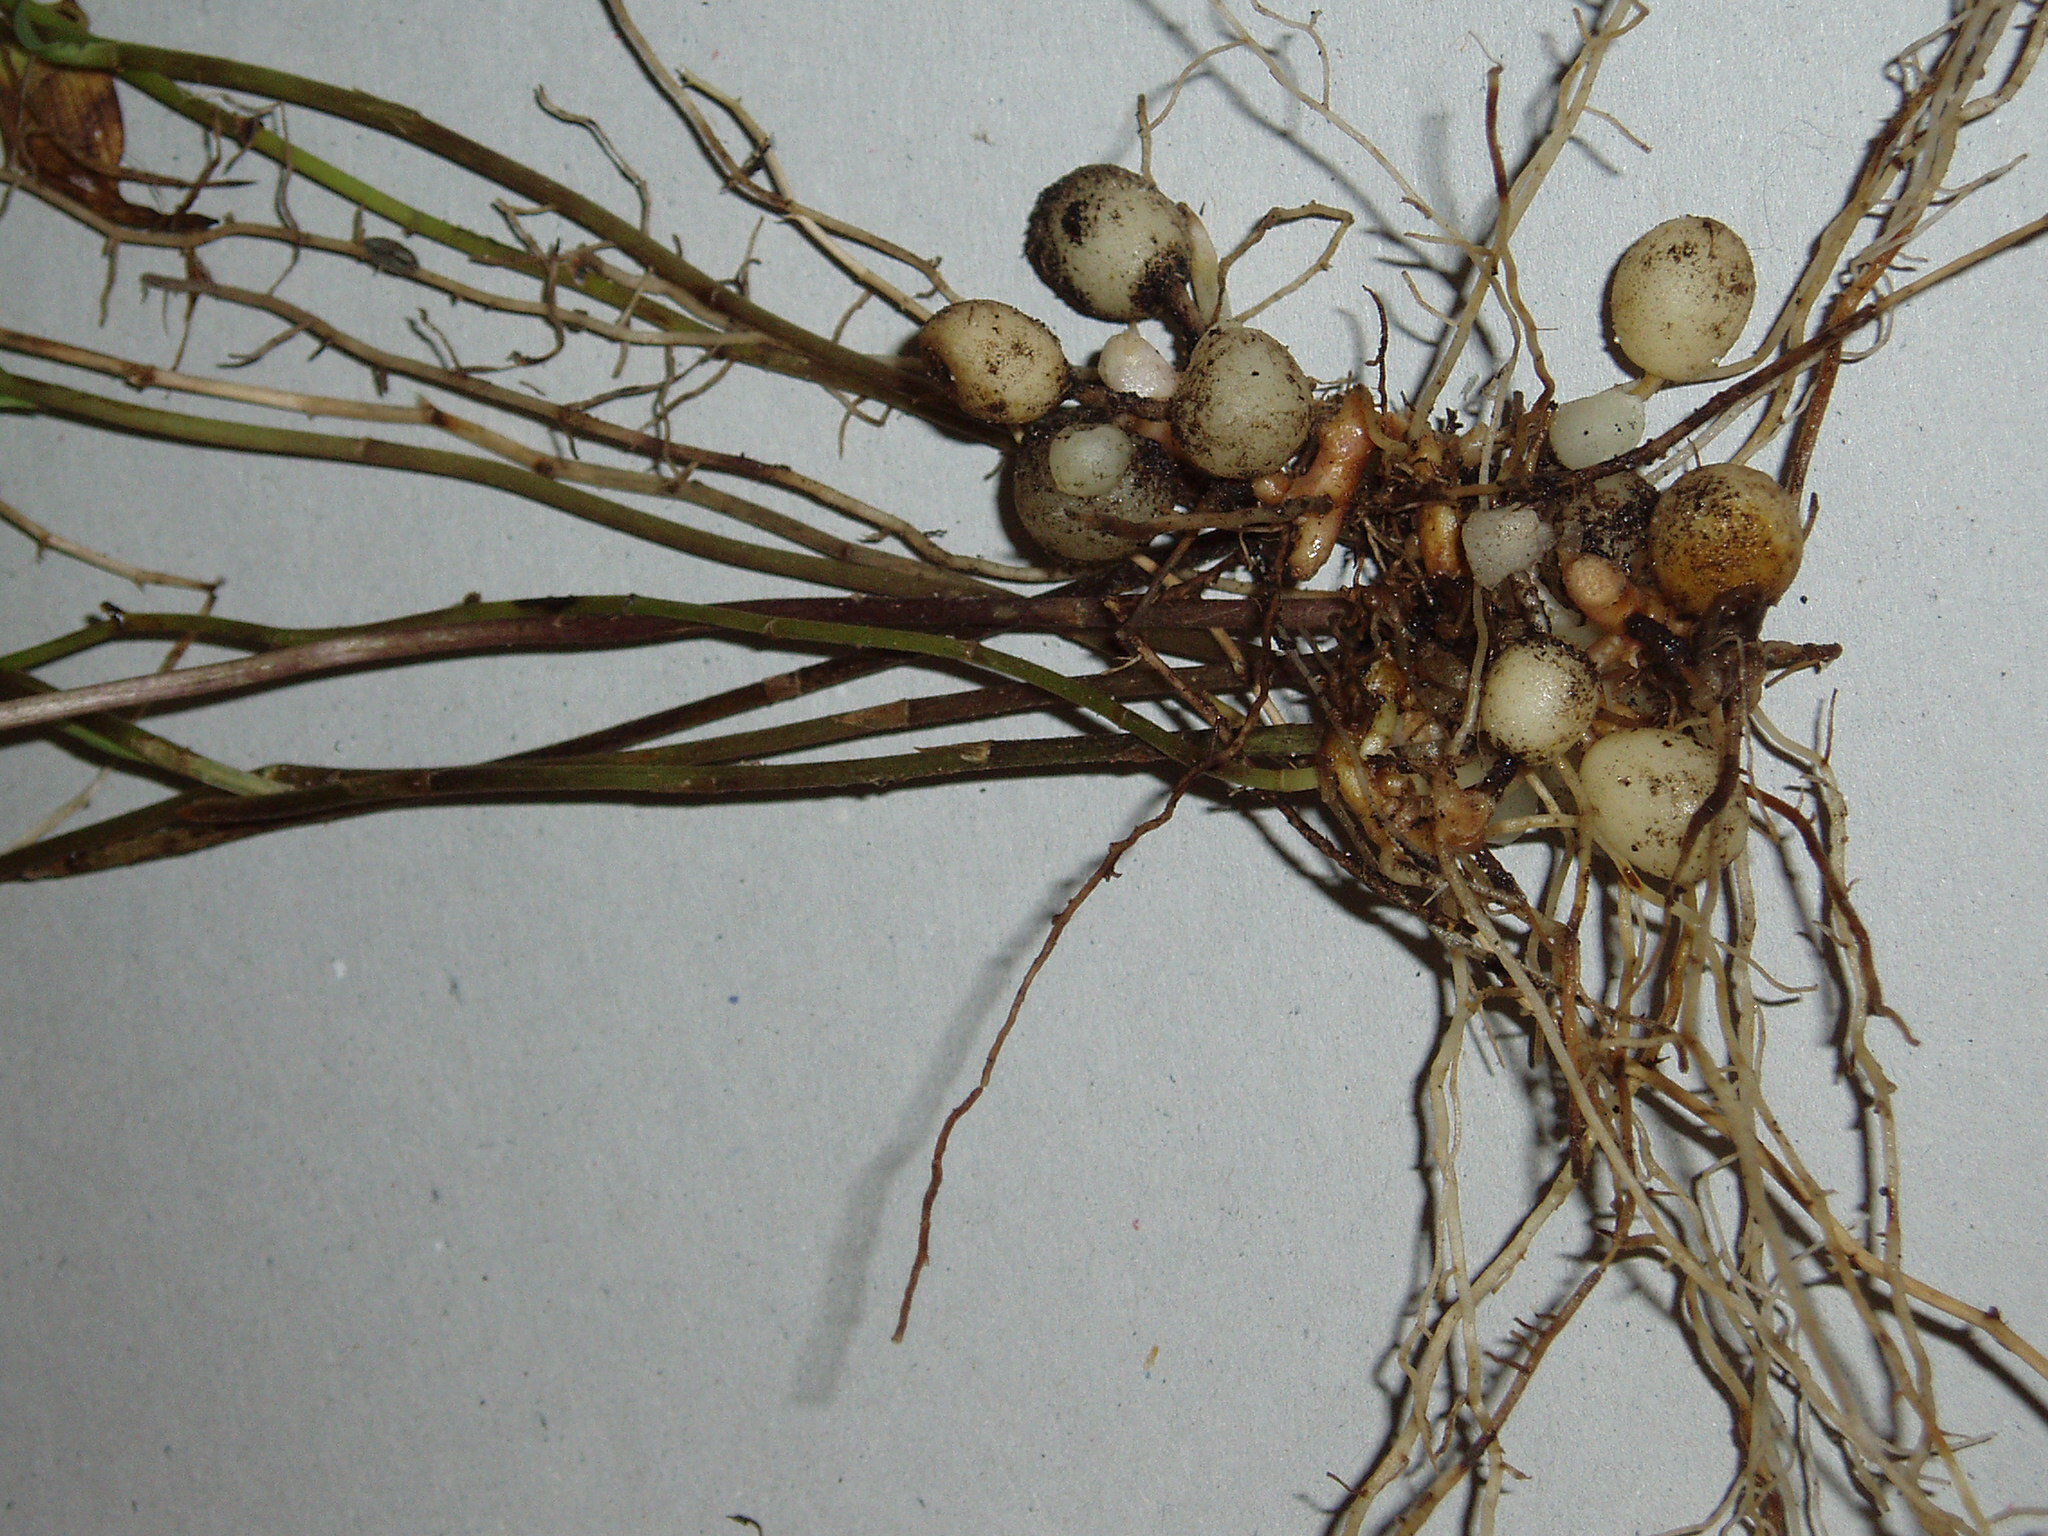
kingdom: Plantae
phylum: Tracheophyta
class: Liliopsida
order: Liliales
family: Alstroemeriaceae
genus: Bomarea
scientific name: Bomarea multiflora
